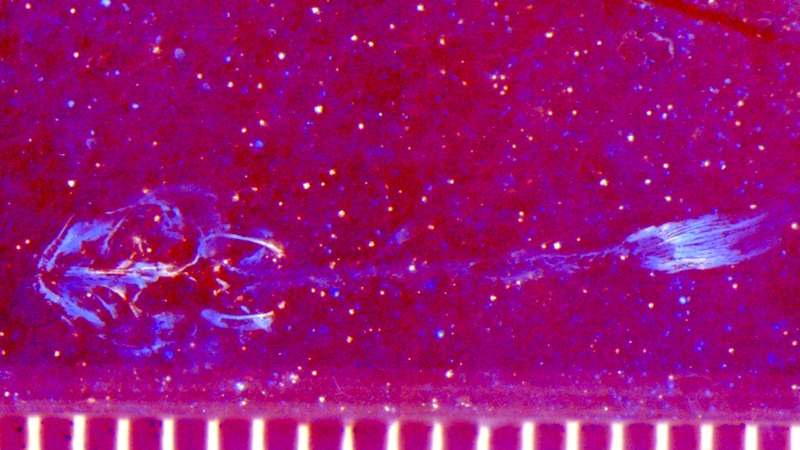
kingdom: Animalia
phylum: Chordata
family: Ophiopsiellidae
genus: Ophiopsiella
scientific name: Ophiopsiella
